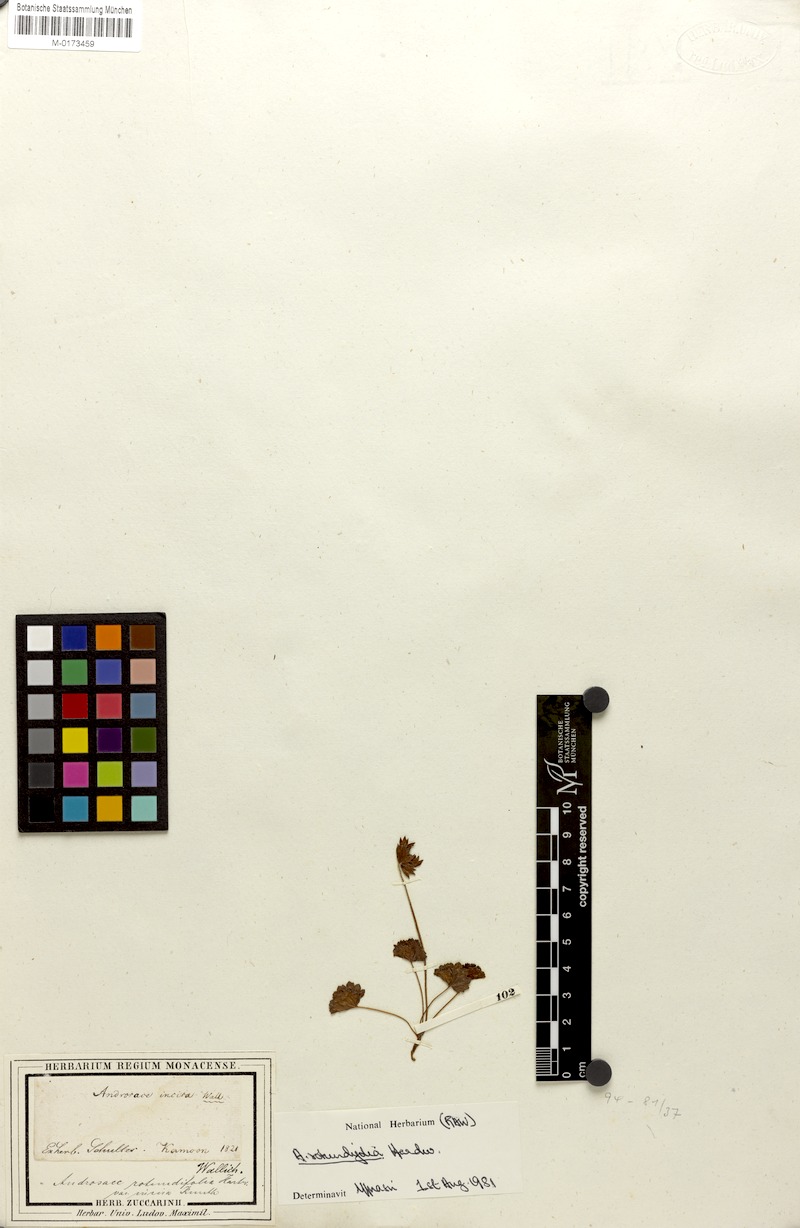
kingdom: Plantae
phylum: Tracheophyta
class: Magnoliopsida
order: Ericales
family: Primulaceae
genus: Androsace
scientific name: Androsace rotundifolia
